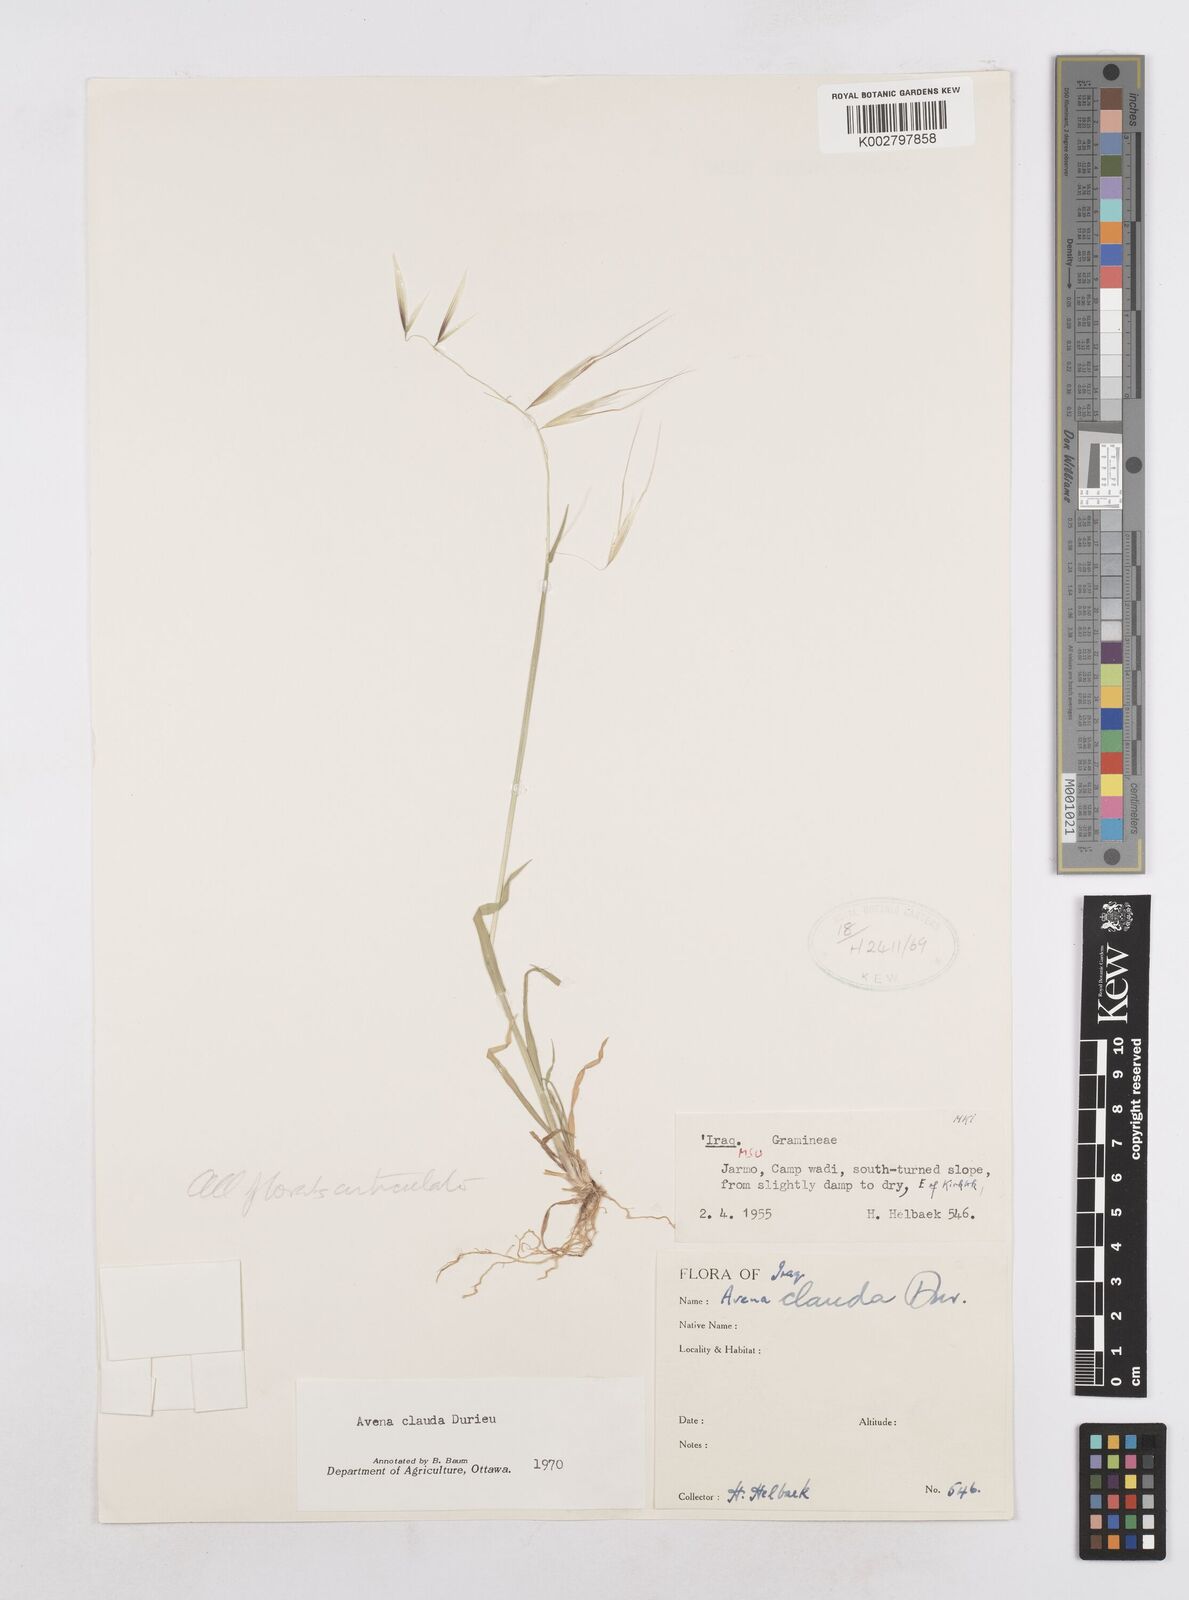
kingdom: Plantae
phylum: Tracheophyta
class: Liliopsida
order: Poales
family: Poaceae
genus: Avena
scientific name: Avena clauda
